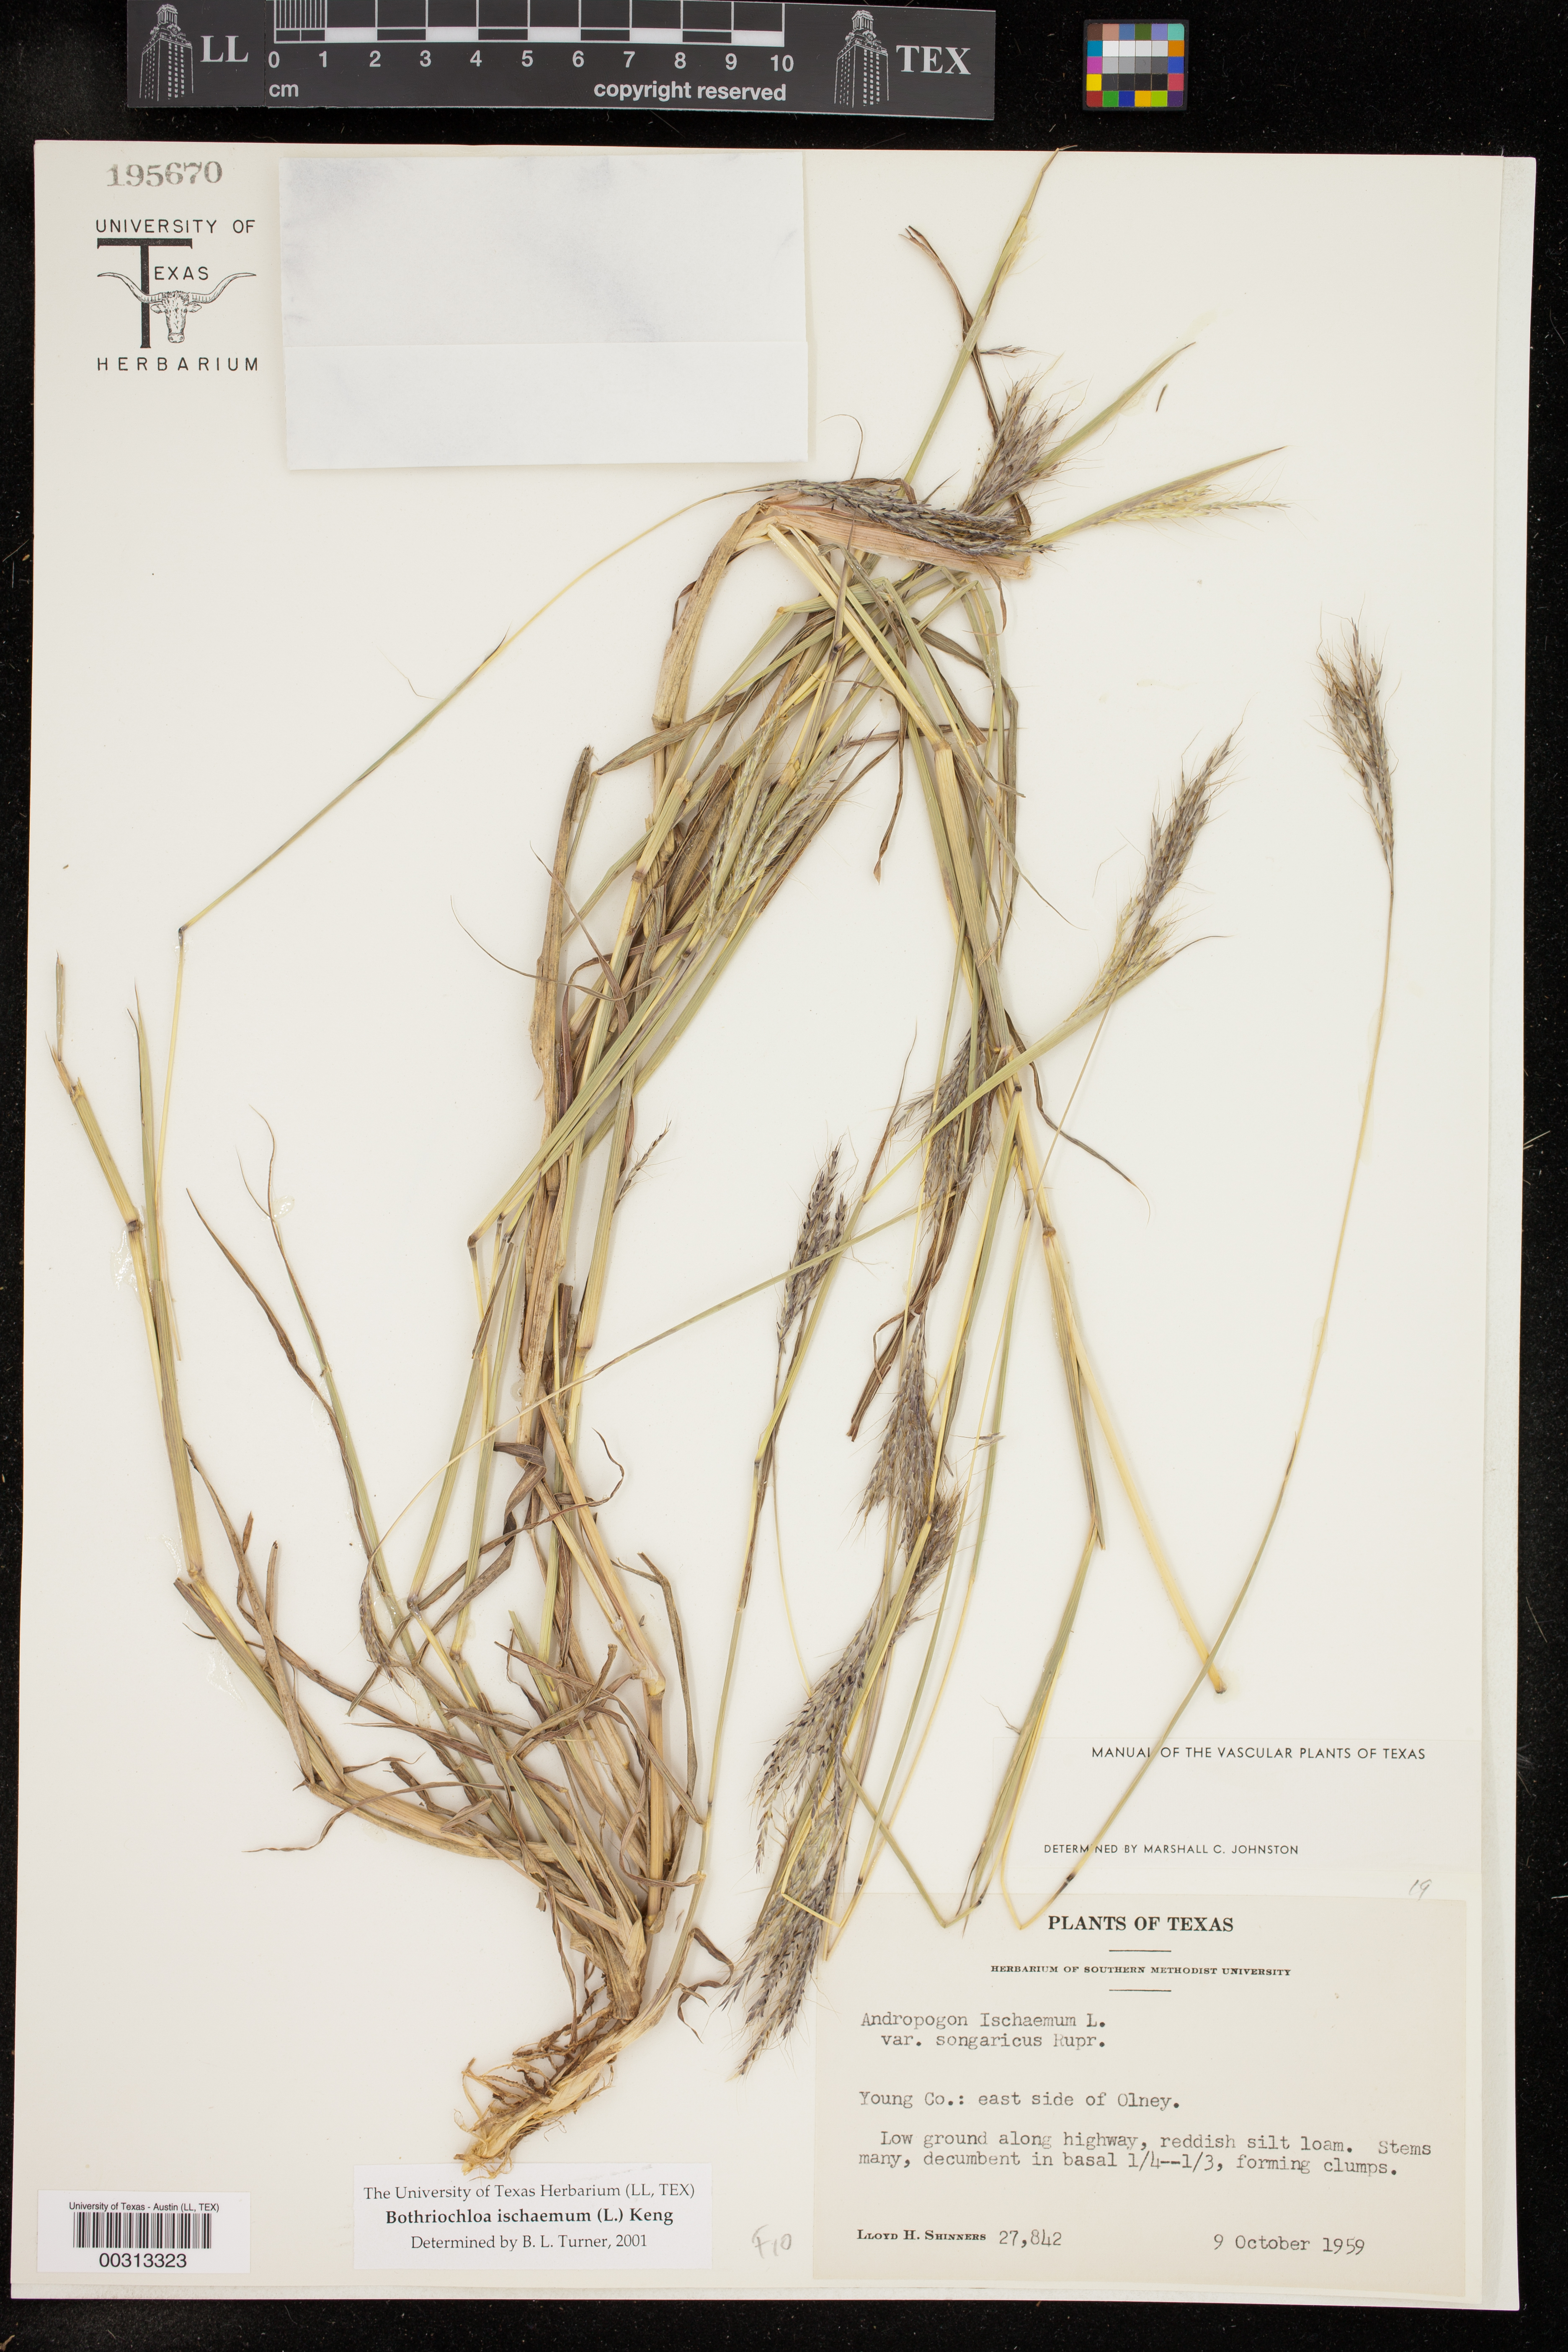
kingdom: Plantae
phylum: Tracheophyta
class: Liliopsida
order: Poales
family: Poaceae
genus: Bothriochloa
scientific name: Bothriochloa ischaemum
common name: Yellow bluestem
